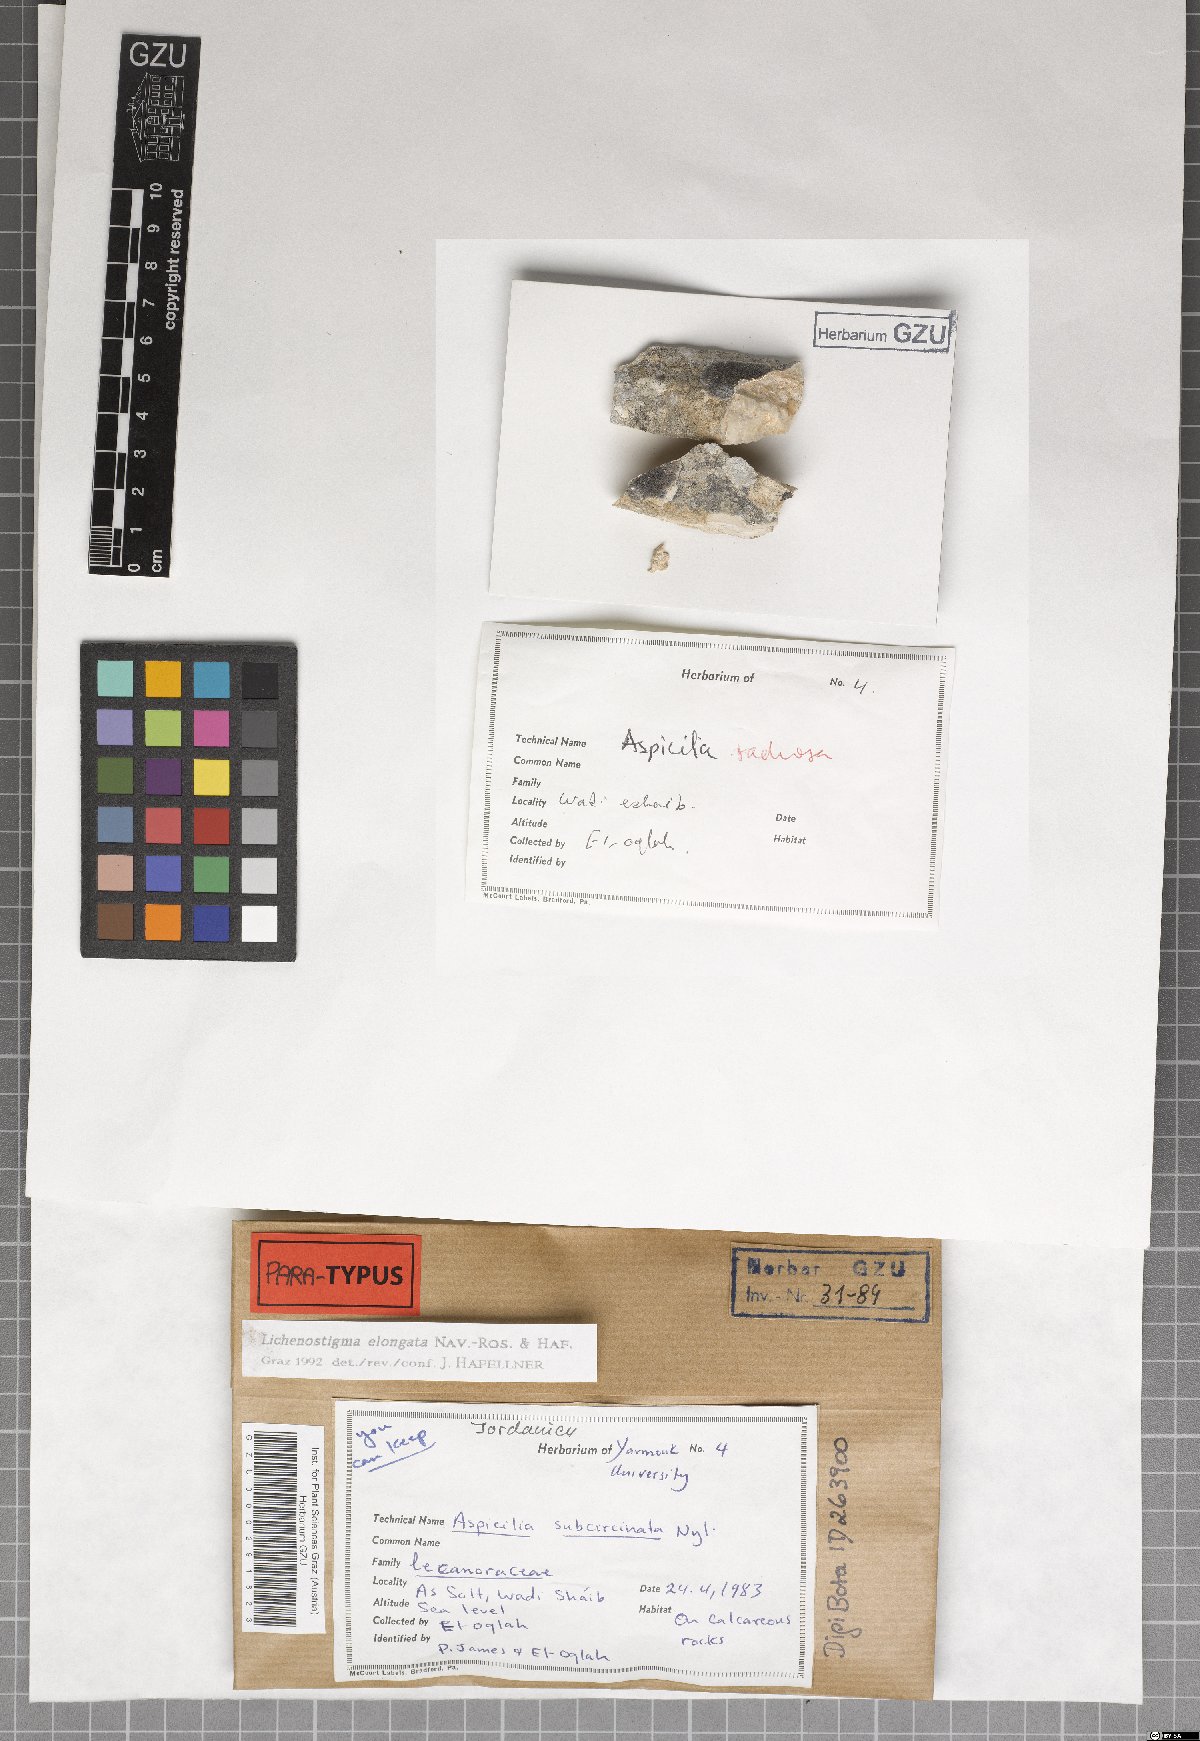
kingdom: Fungi
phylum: Ascomycota
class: Arthoniomycetes
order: Lichenostigmatales
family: Phaeococcomycetaceae
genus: Lichenostigma
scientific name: Lichenostigma elongatum
